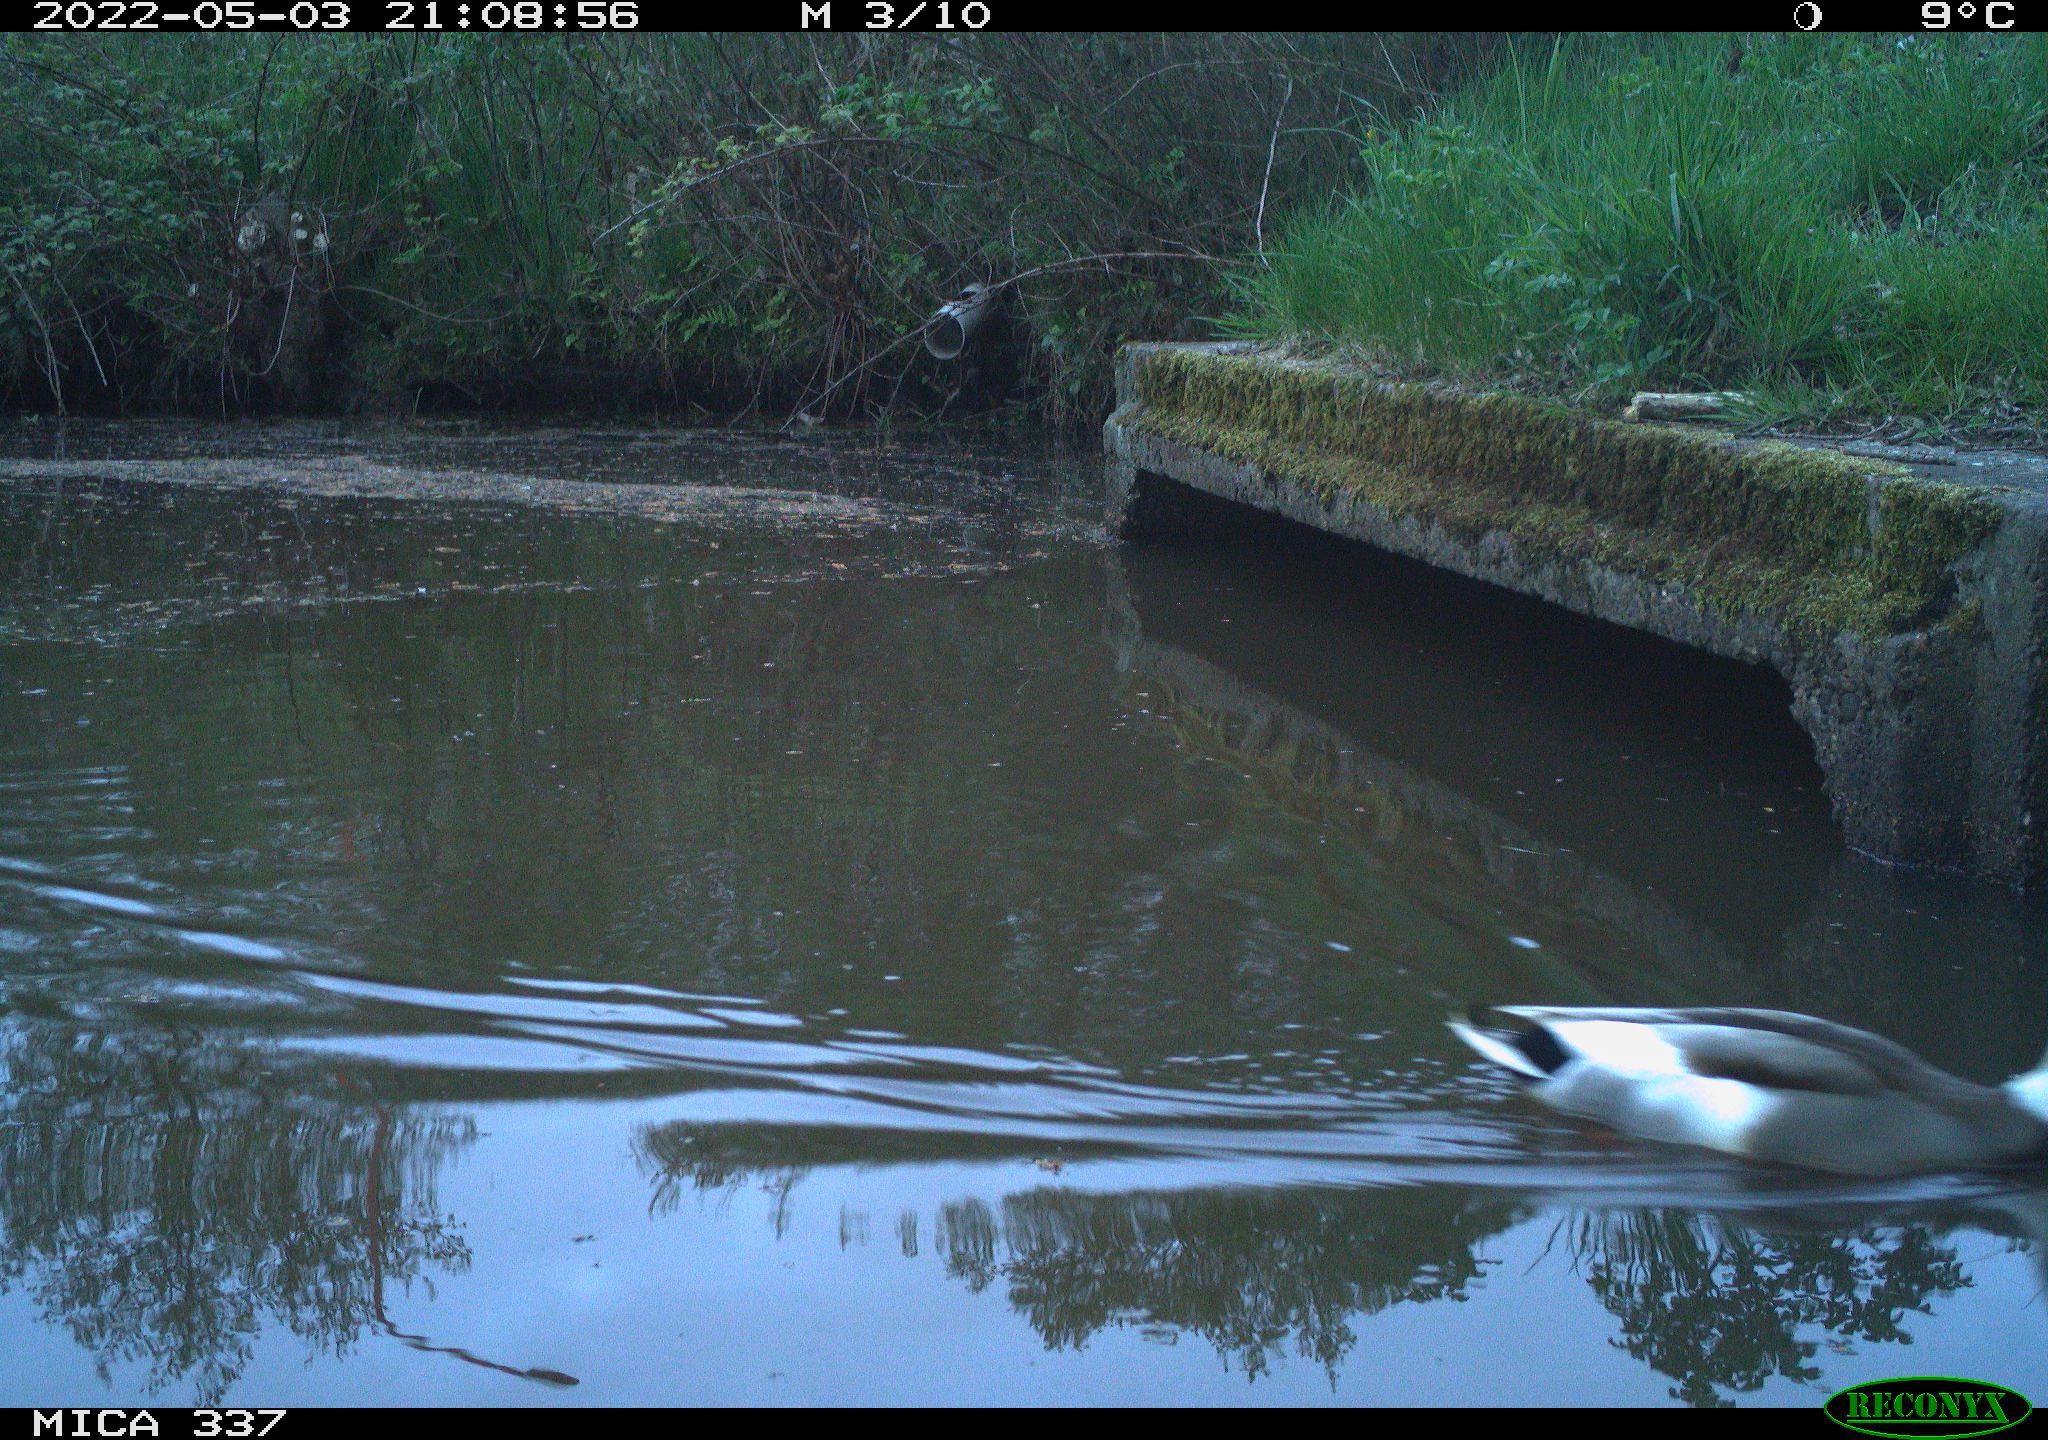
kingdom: Animalia
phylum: Chordata
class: Aves
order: Anseriformes
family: Anatidae
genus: Anas
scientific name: Anas platyrhynchos
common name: Mallard
